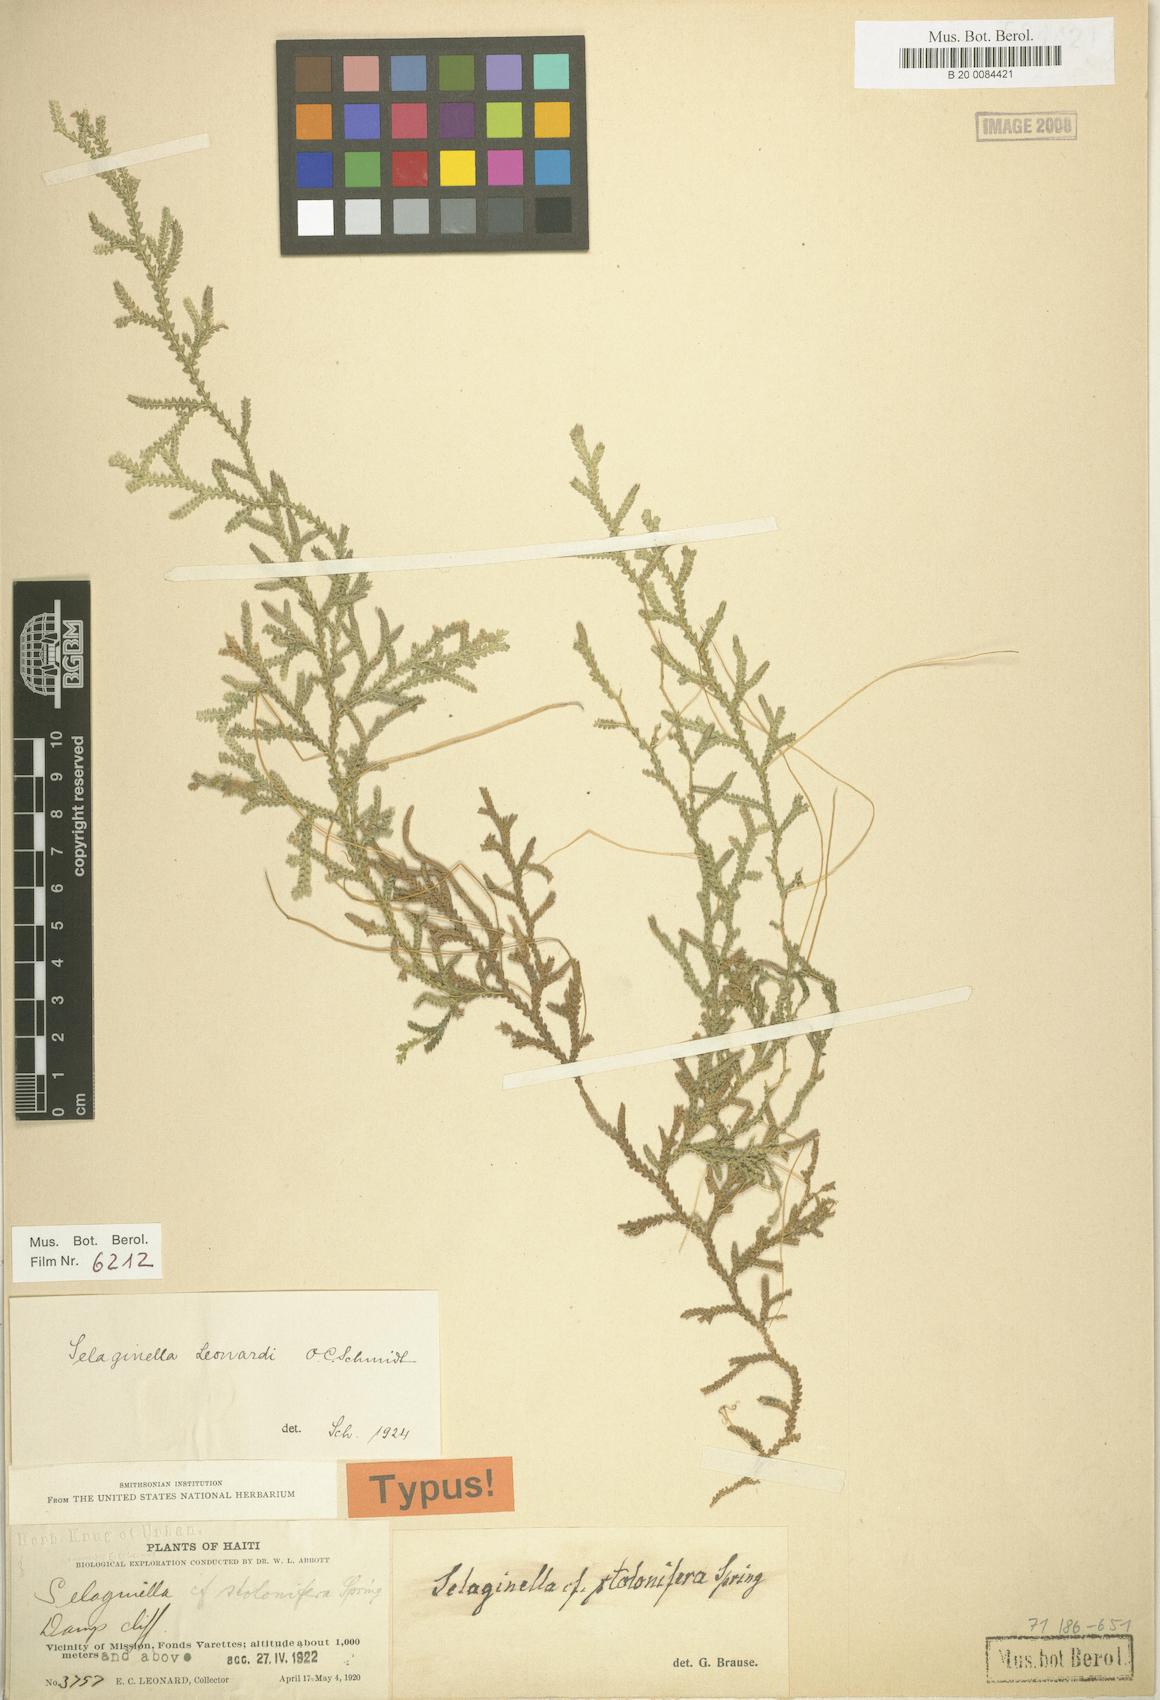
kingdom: Plantae
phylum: Tracheophyta
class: Lycopodiopsida
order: Selaginellales
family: Selaginellaceae
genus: Selaginella
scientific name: Selaginella leonardii
